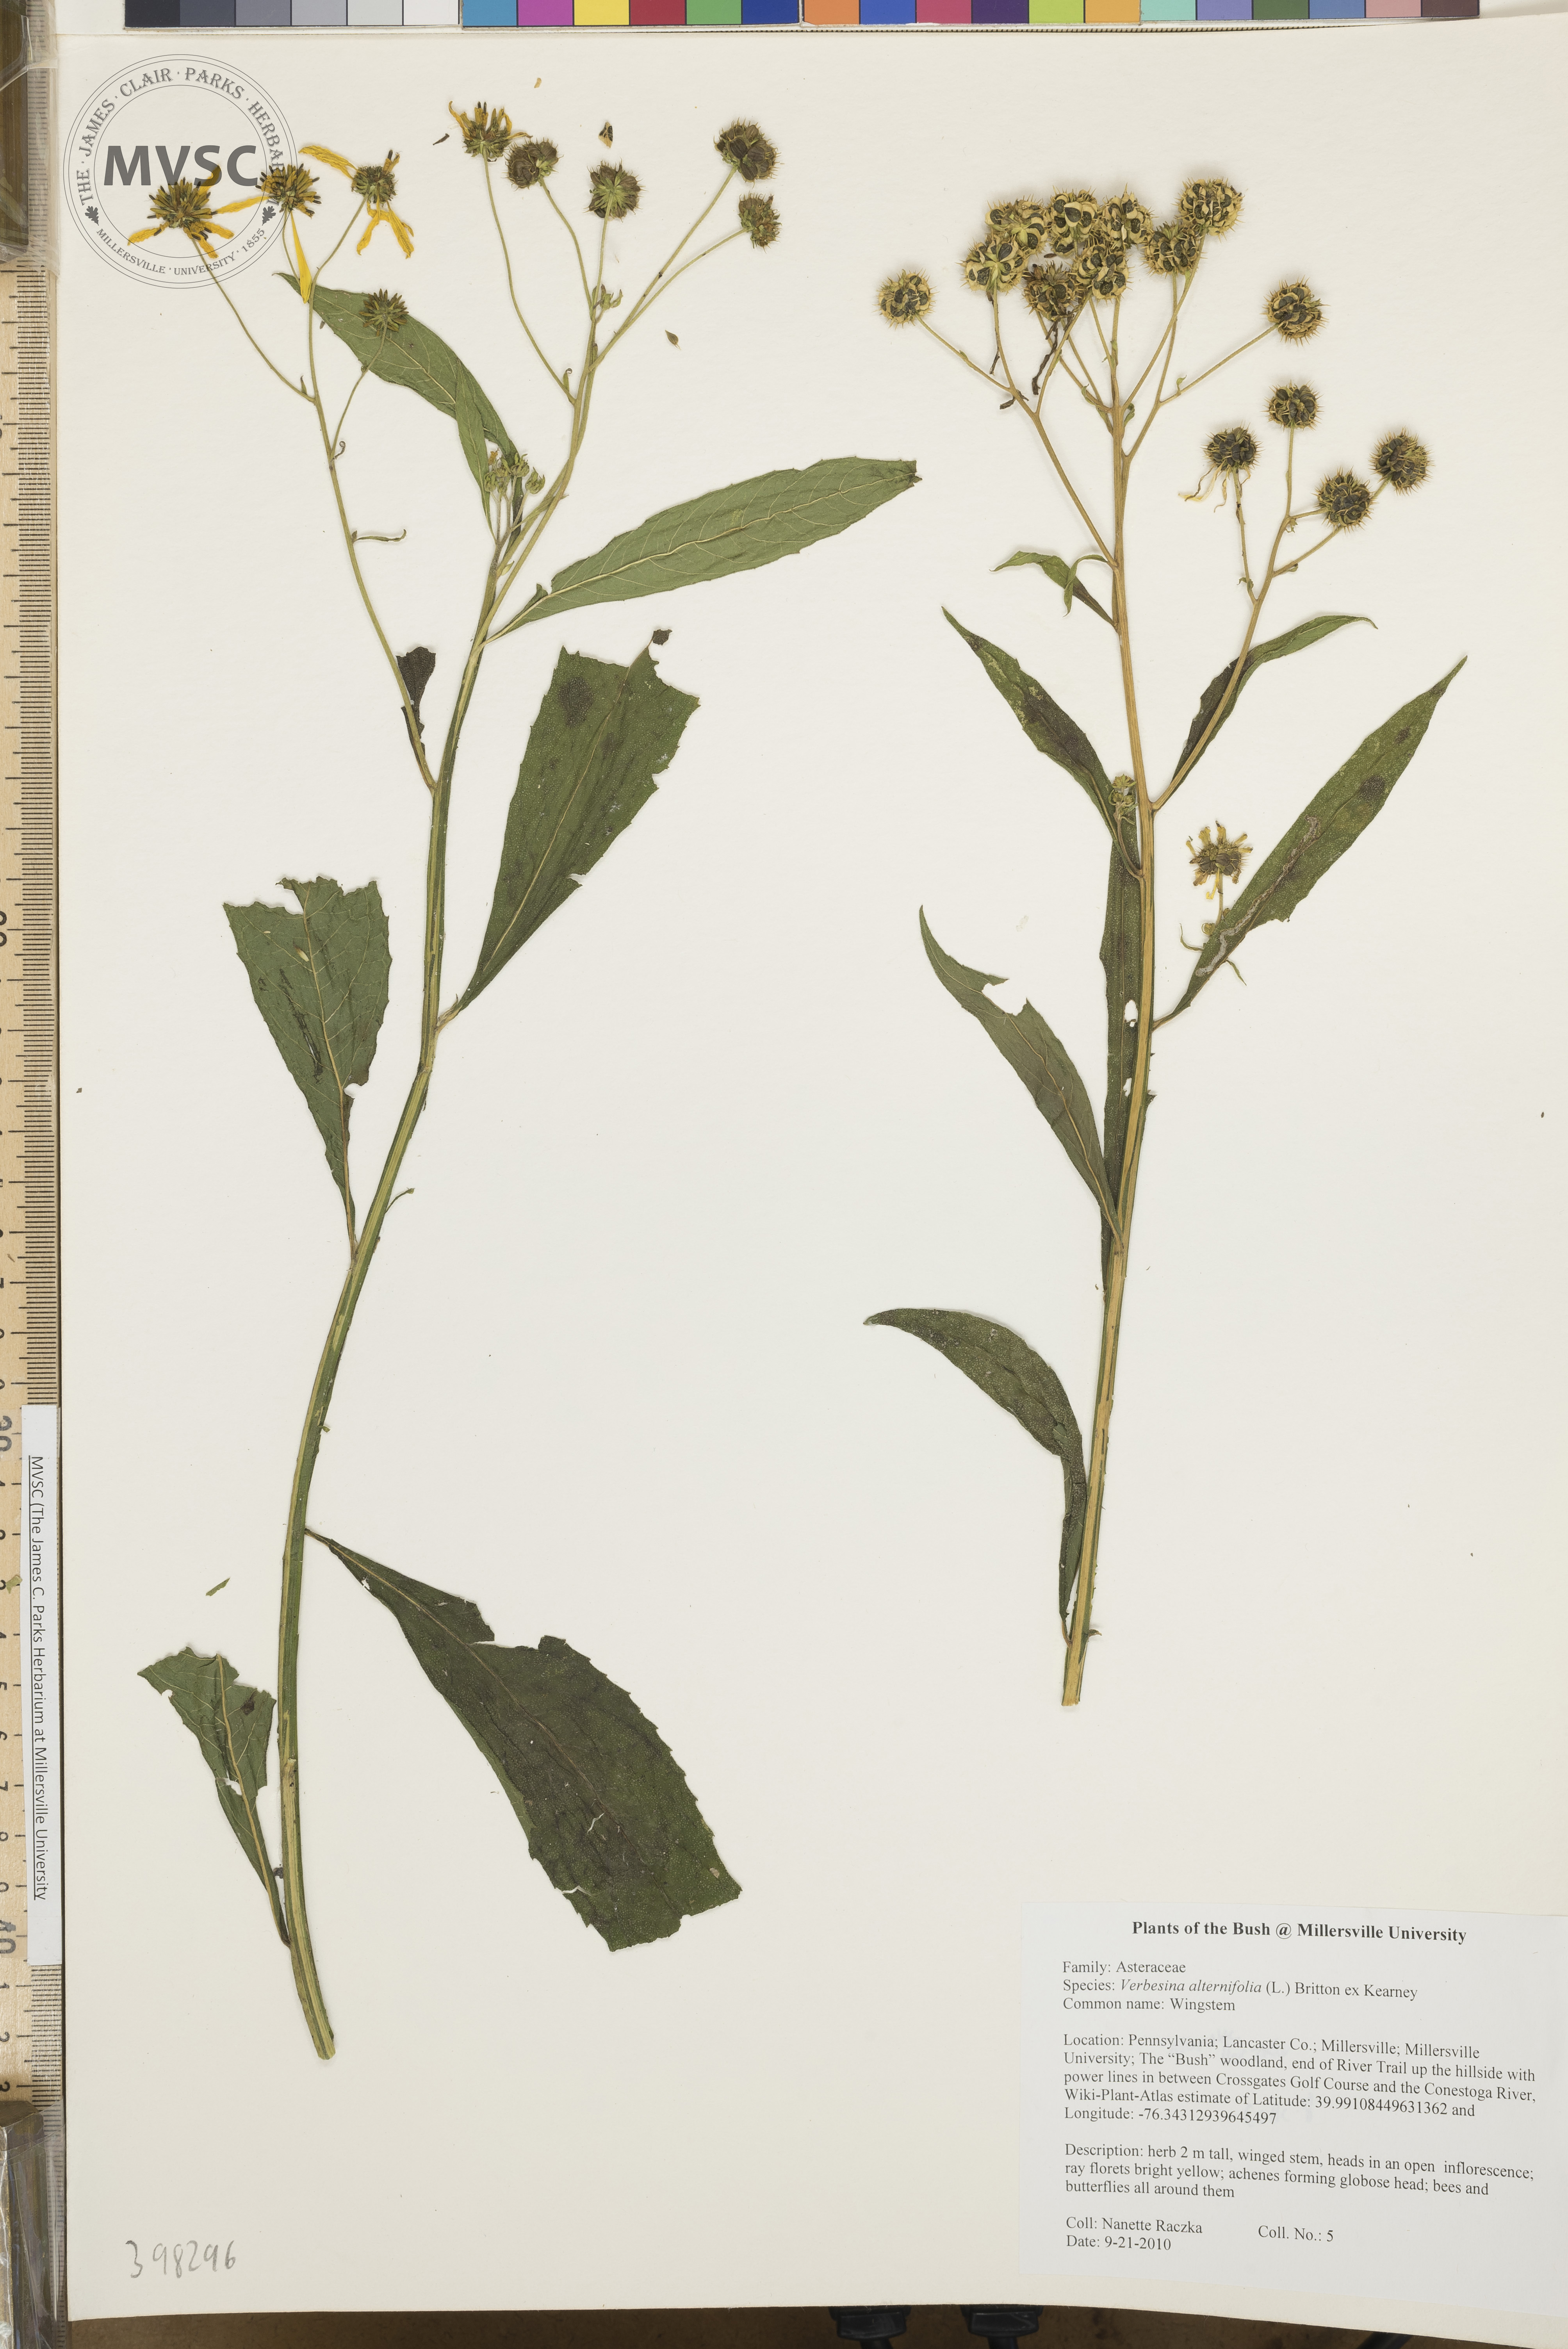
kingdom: Plantae
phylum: Tracheophyta
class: Magnoliopsida
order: Asterales
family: Asteraceae
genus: Verbesina
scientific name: Verbesina alternifolia
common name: Wingstem
